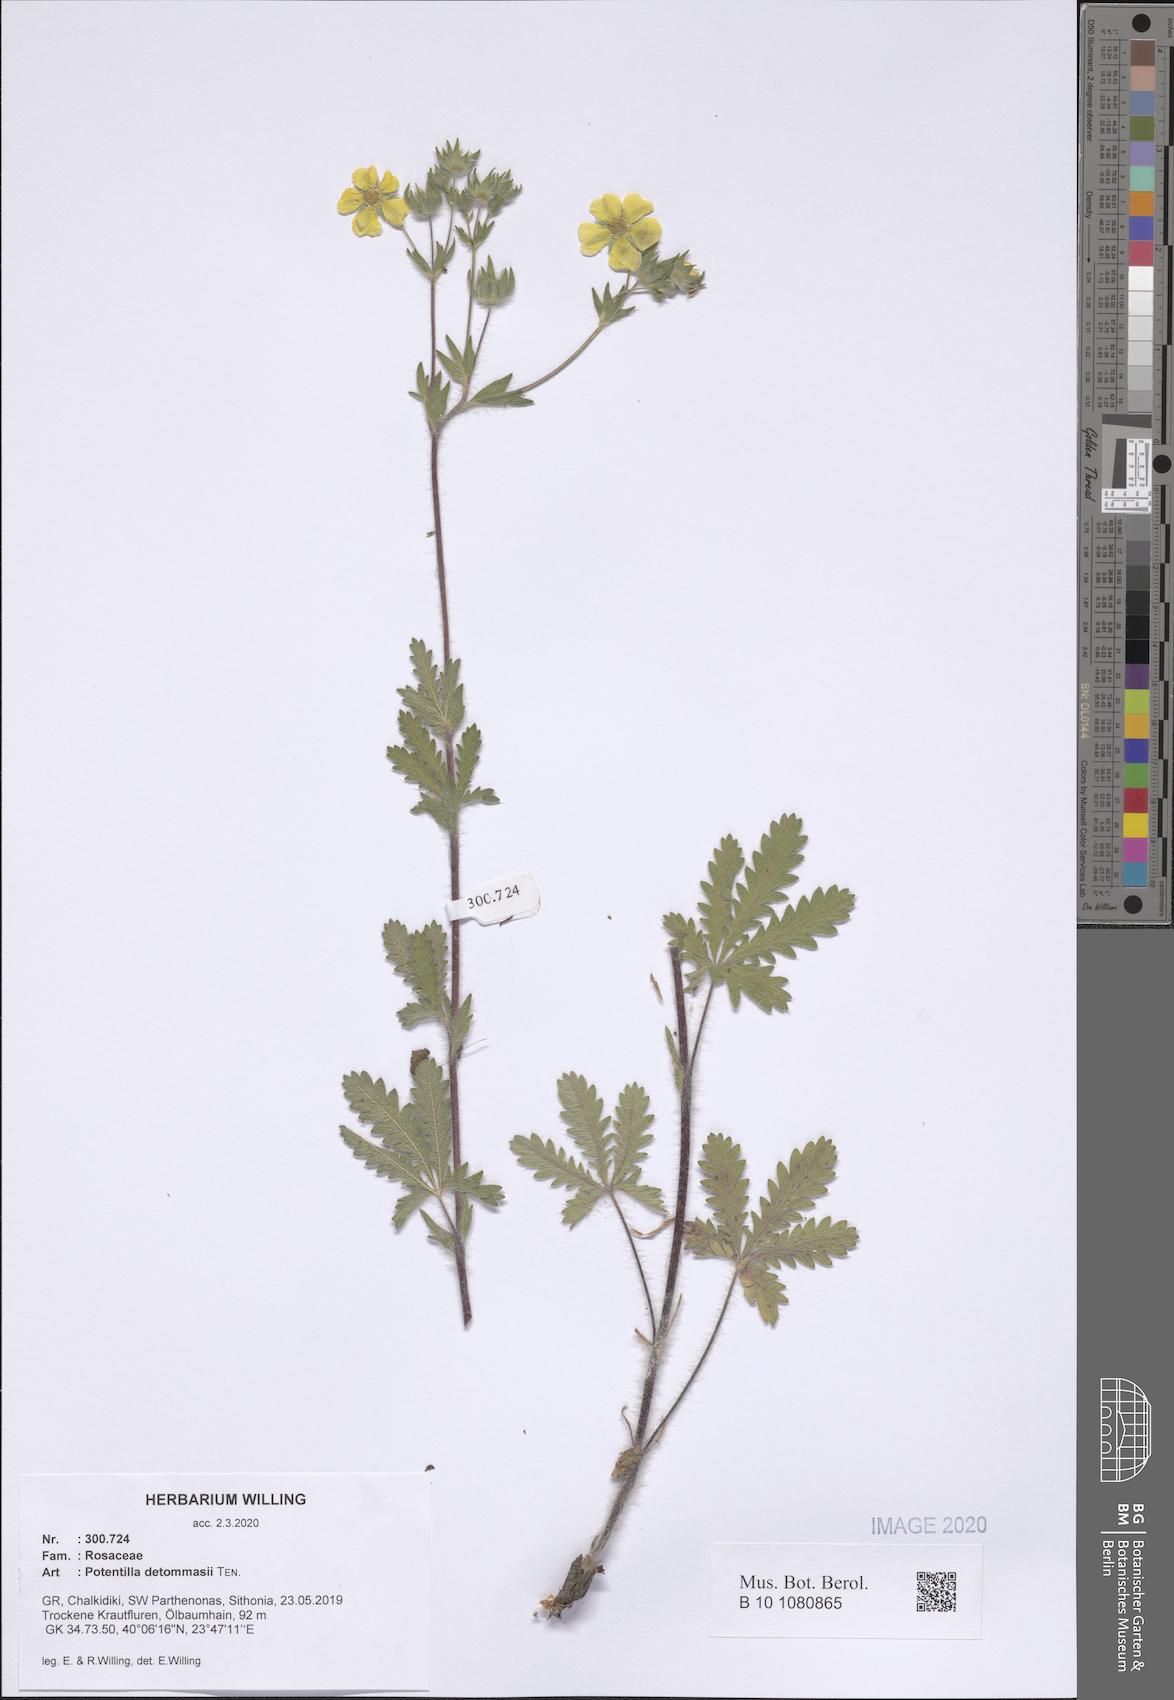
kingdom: Plantae
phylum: Tracheophyta
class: Magnoliopsida
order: Rosales
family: Rosaceae
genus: Potentilla
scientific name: Potentilla detommasii
